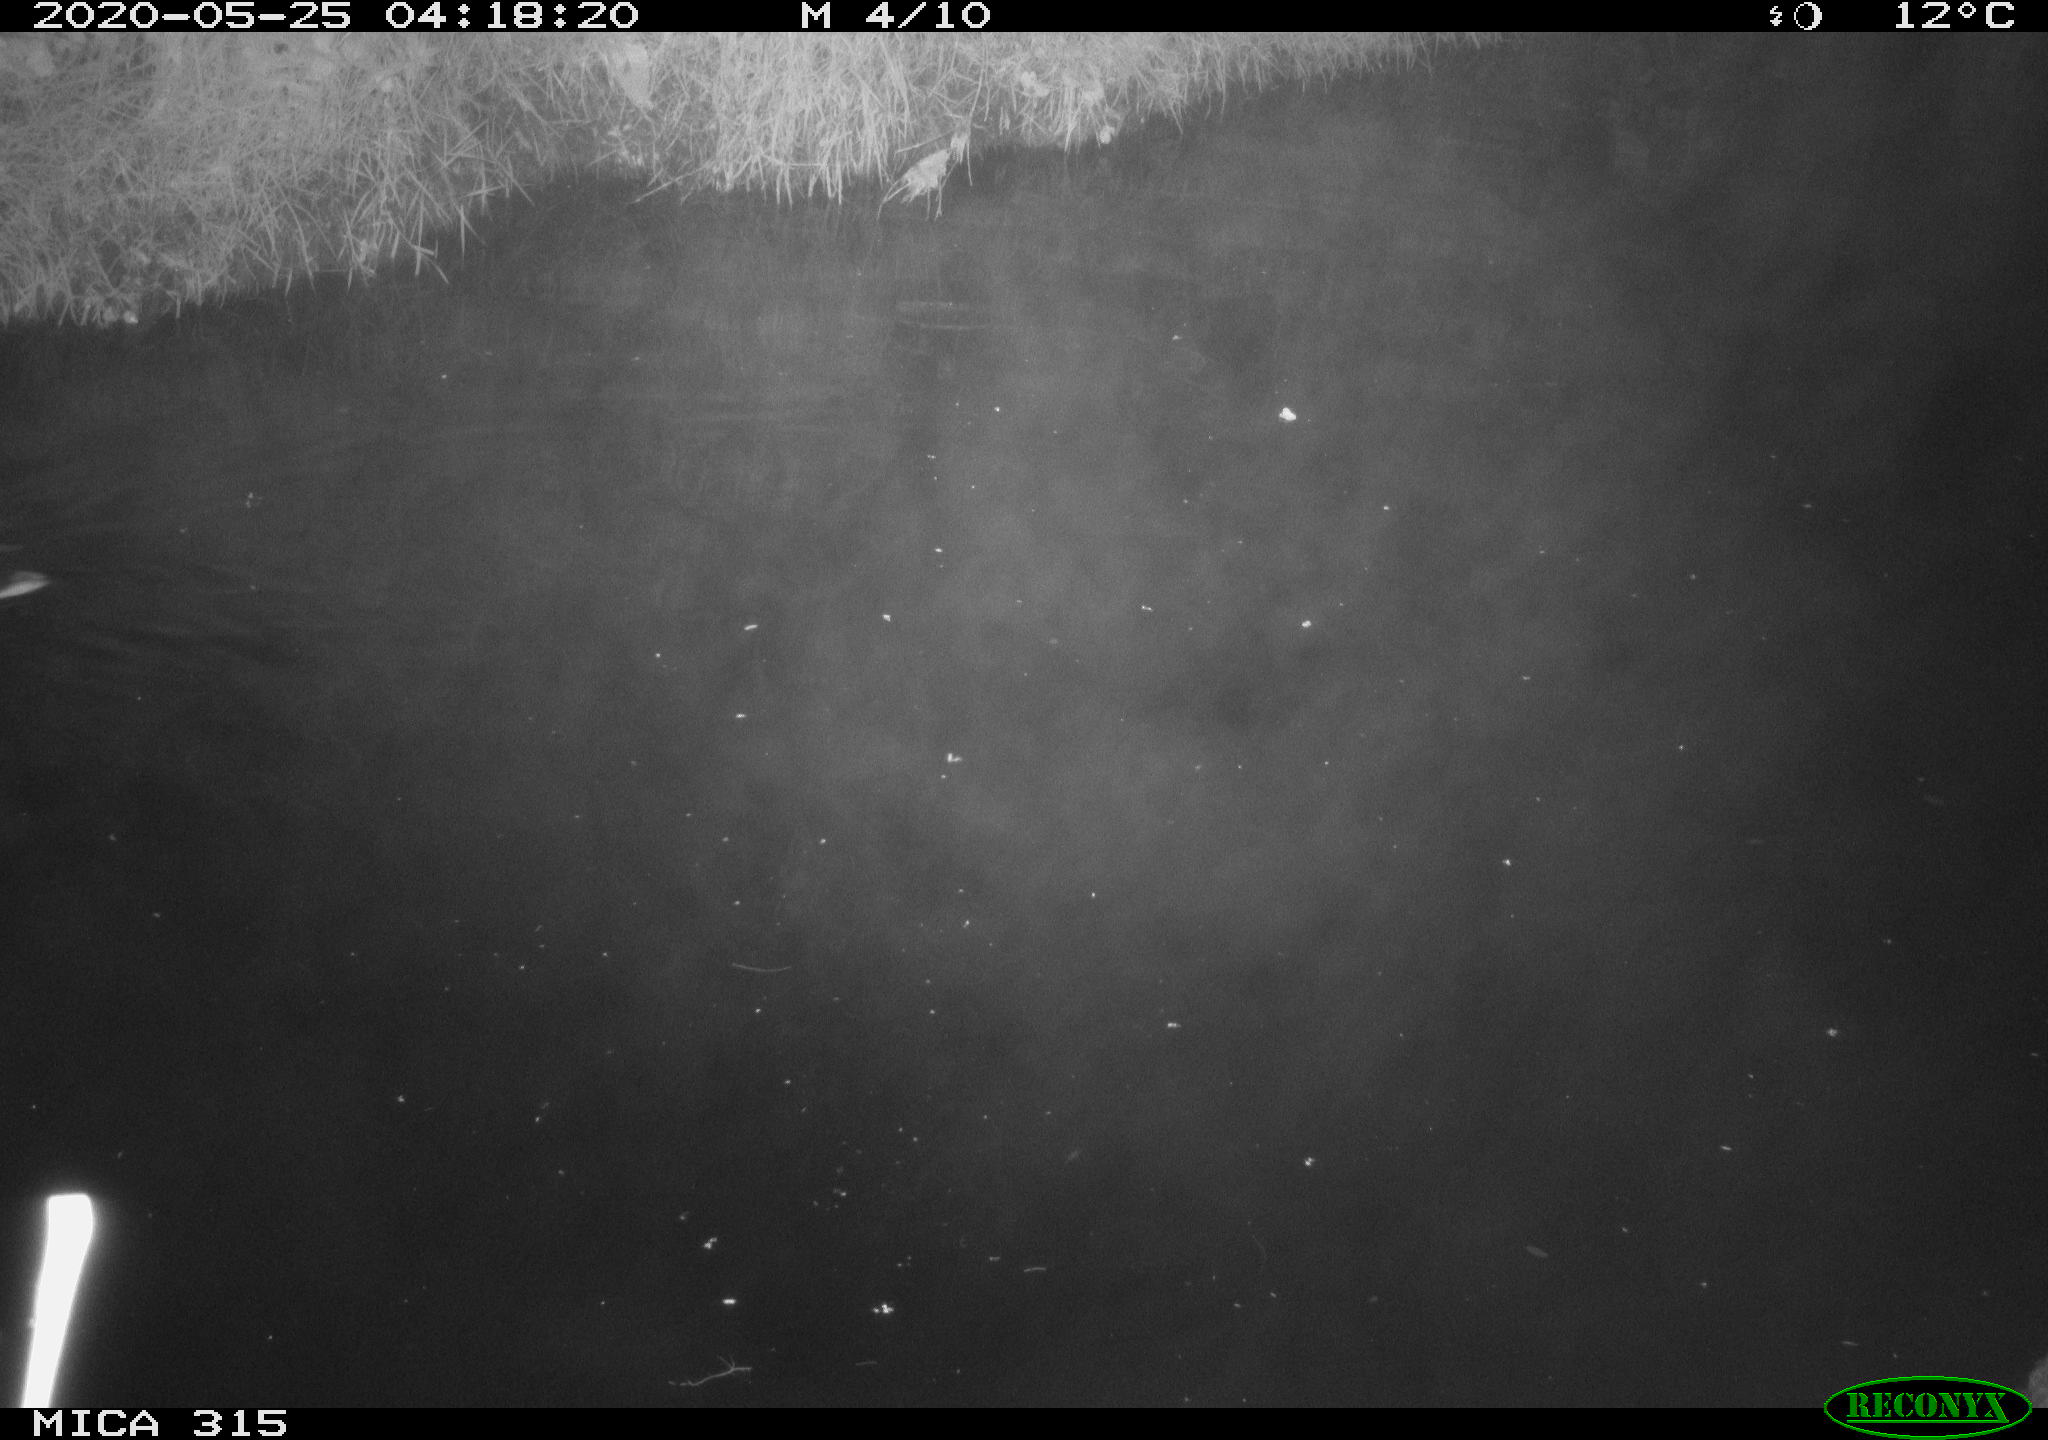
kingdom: Animalia
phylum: Chordata
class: Aves
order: Anseriformes
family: Anatidae
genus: Anas
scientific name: Anas platyrhynchos
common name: Mallard
